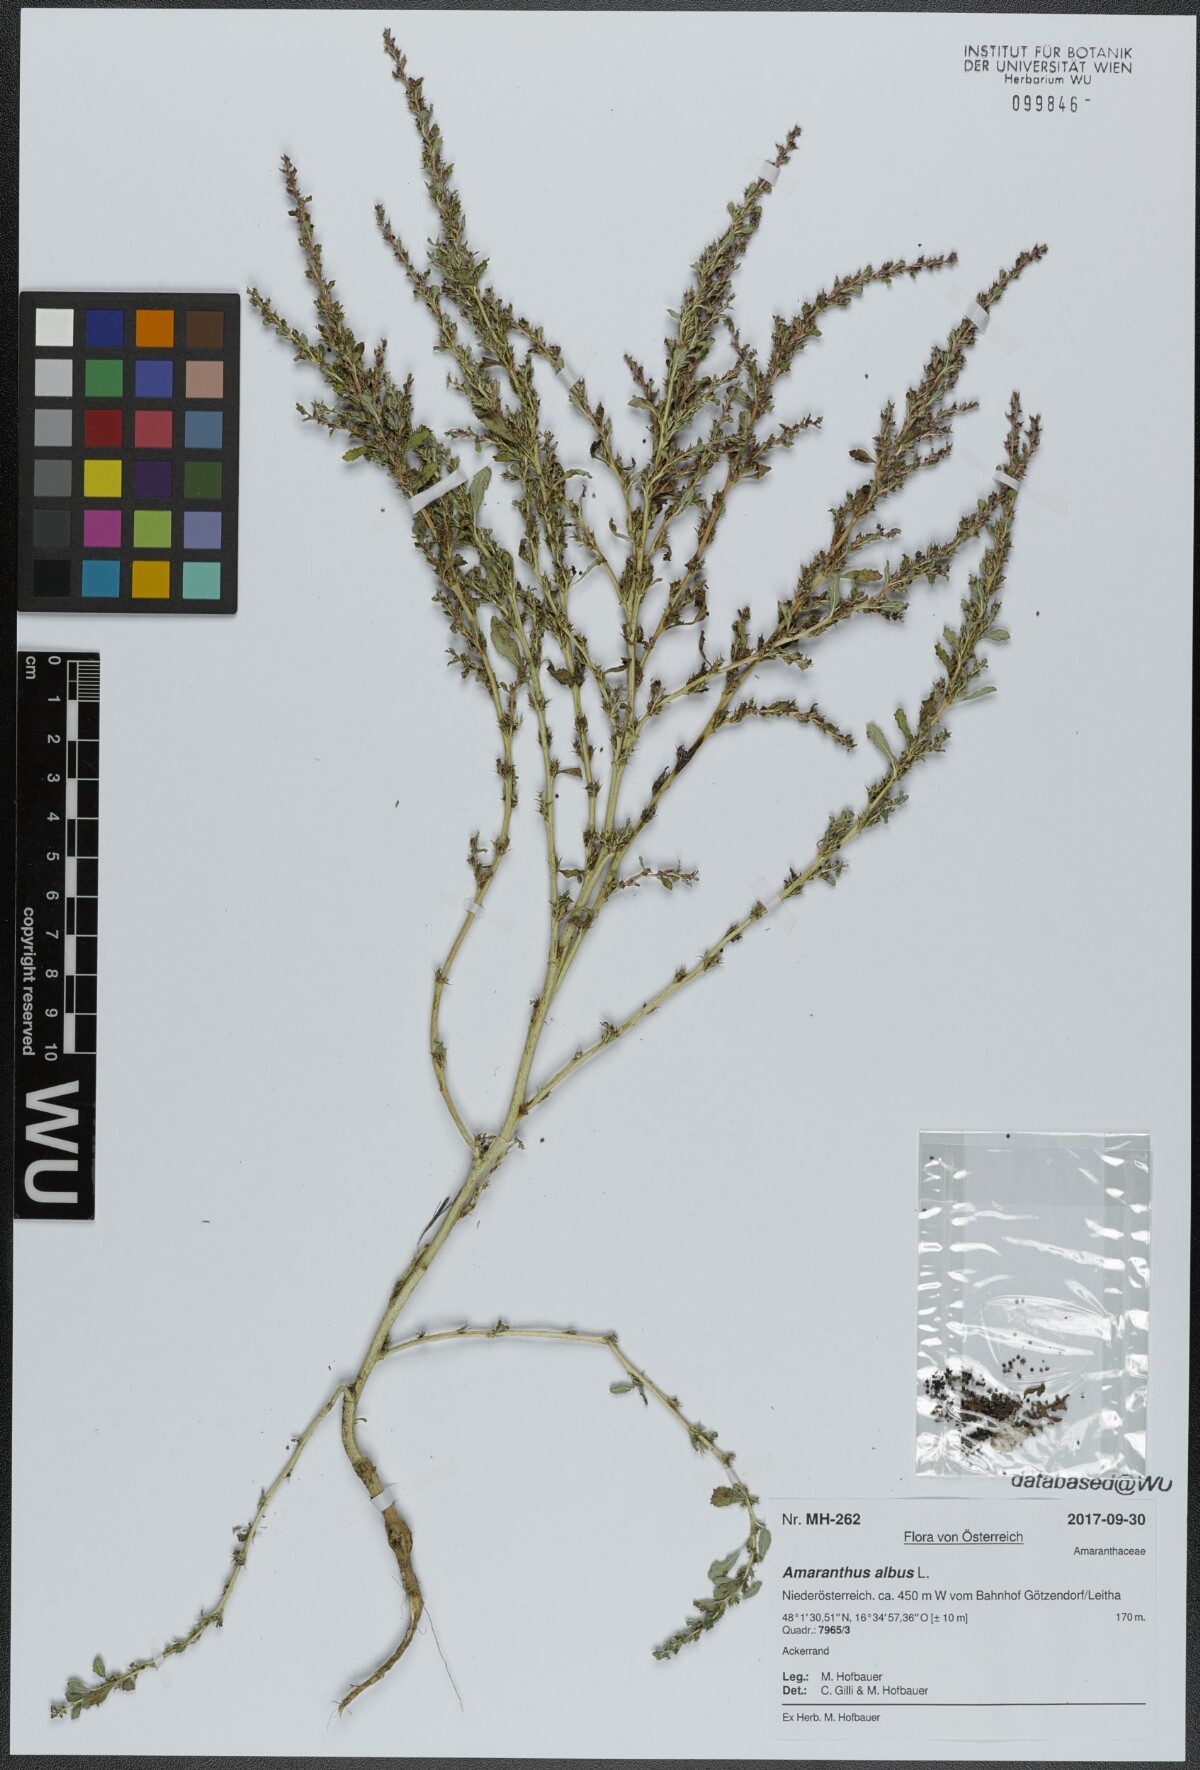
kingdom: Plantae
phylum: Tracheophyta
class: Magnoliopsida
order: Caryophyllales
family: Amaranthaceae
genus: Amaranthus
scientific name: Amaranthus albus
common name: White pigweed
